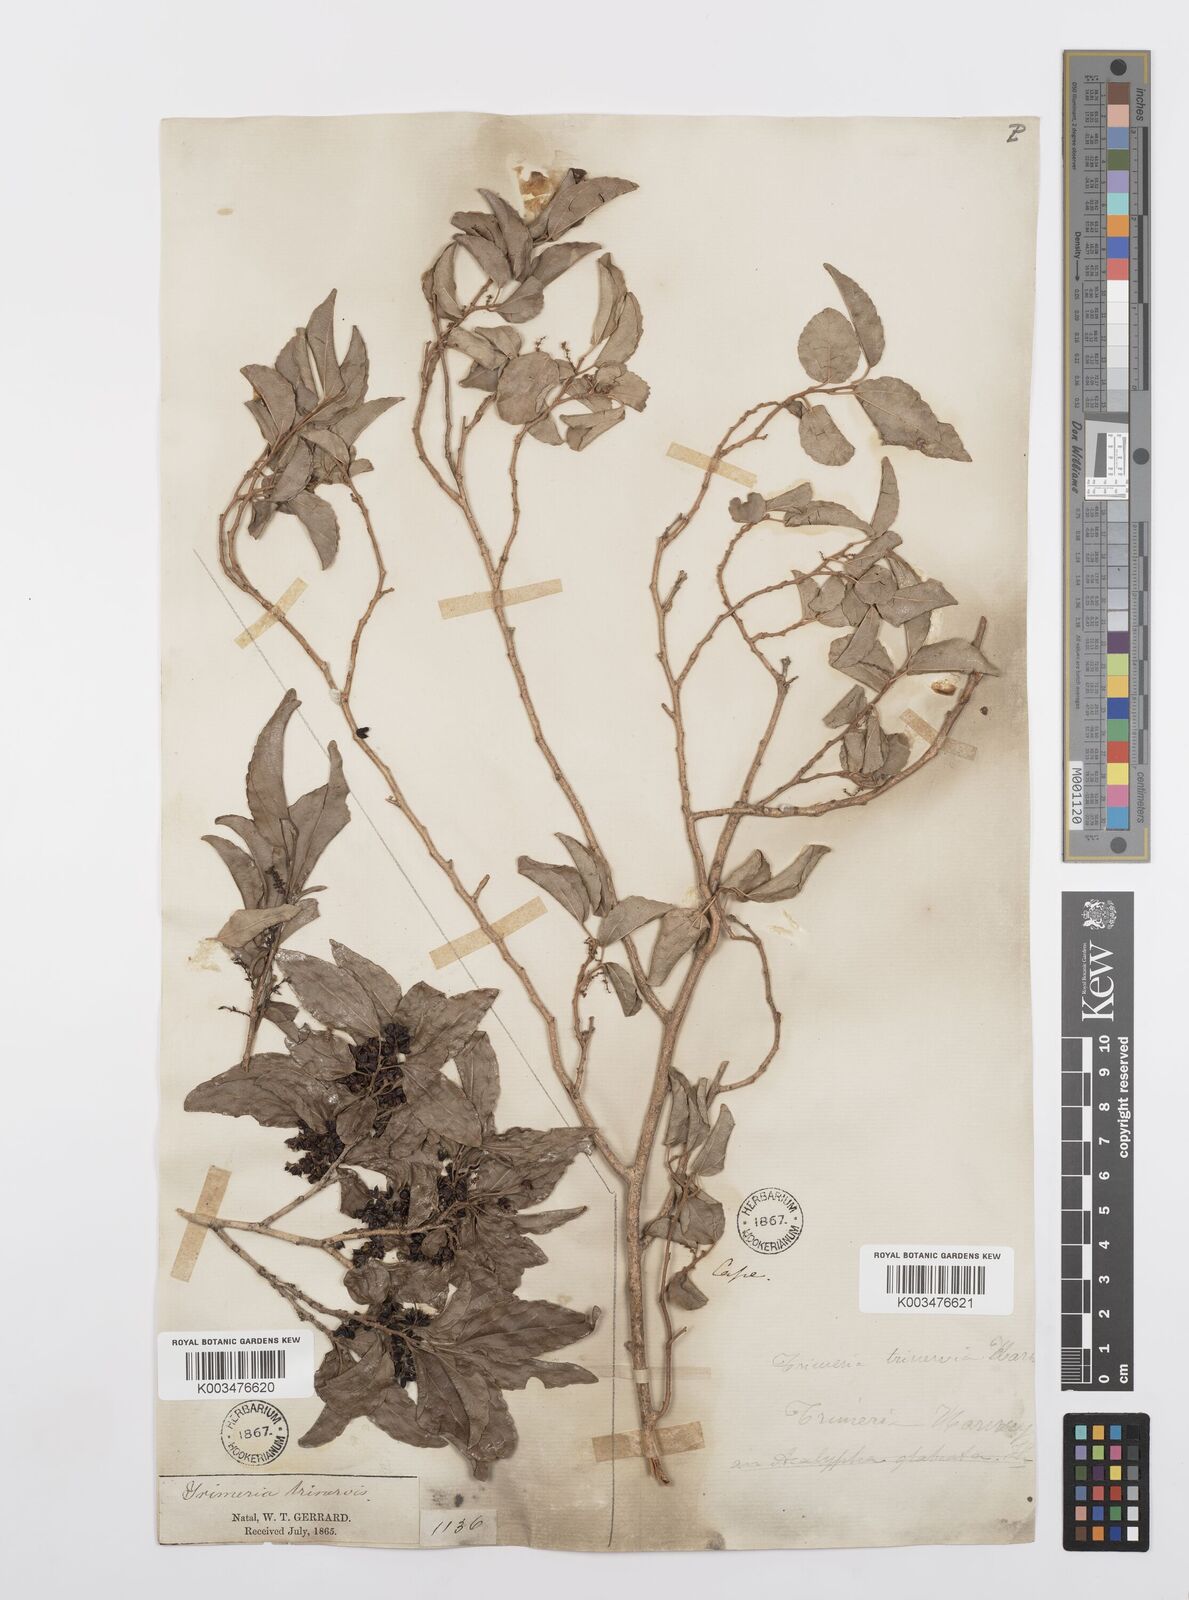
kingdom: Plantae
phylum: Tracheophyta
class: Magnoliopsida
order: Malpighiales
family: Salicaceae
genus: Trimeria
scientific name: Trimeria trinervis
